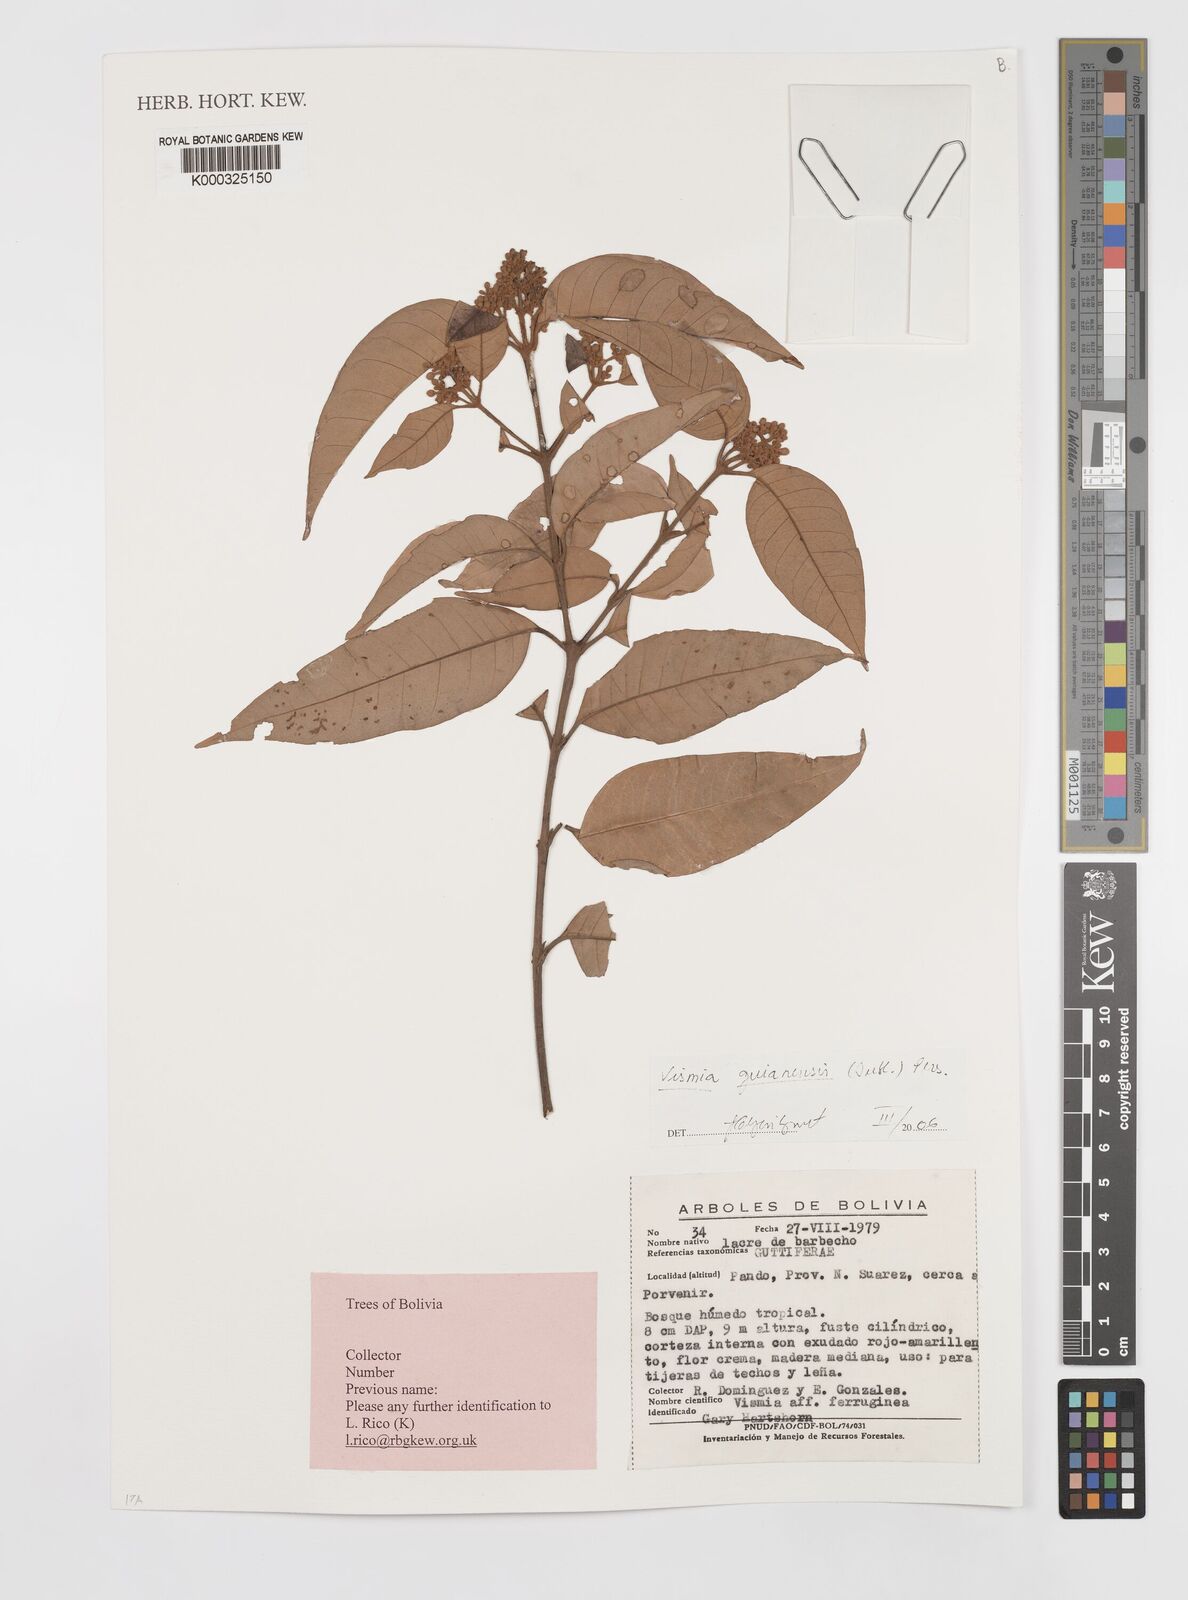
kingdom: Plantae
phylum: Tracheophyta
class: Magnoliopsida
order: Malpighiales
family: Hypericaceae
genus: Vismia
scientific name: Vismia guianensis
